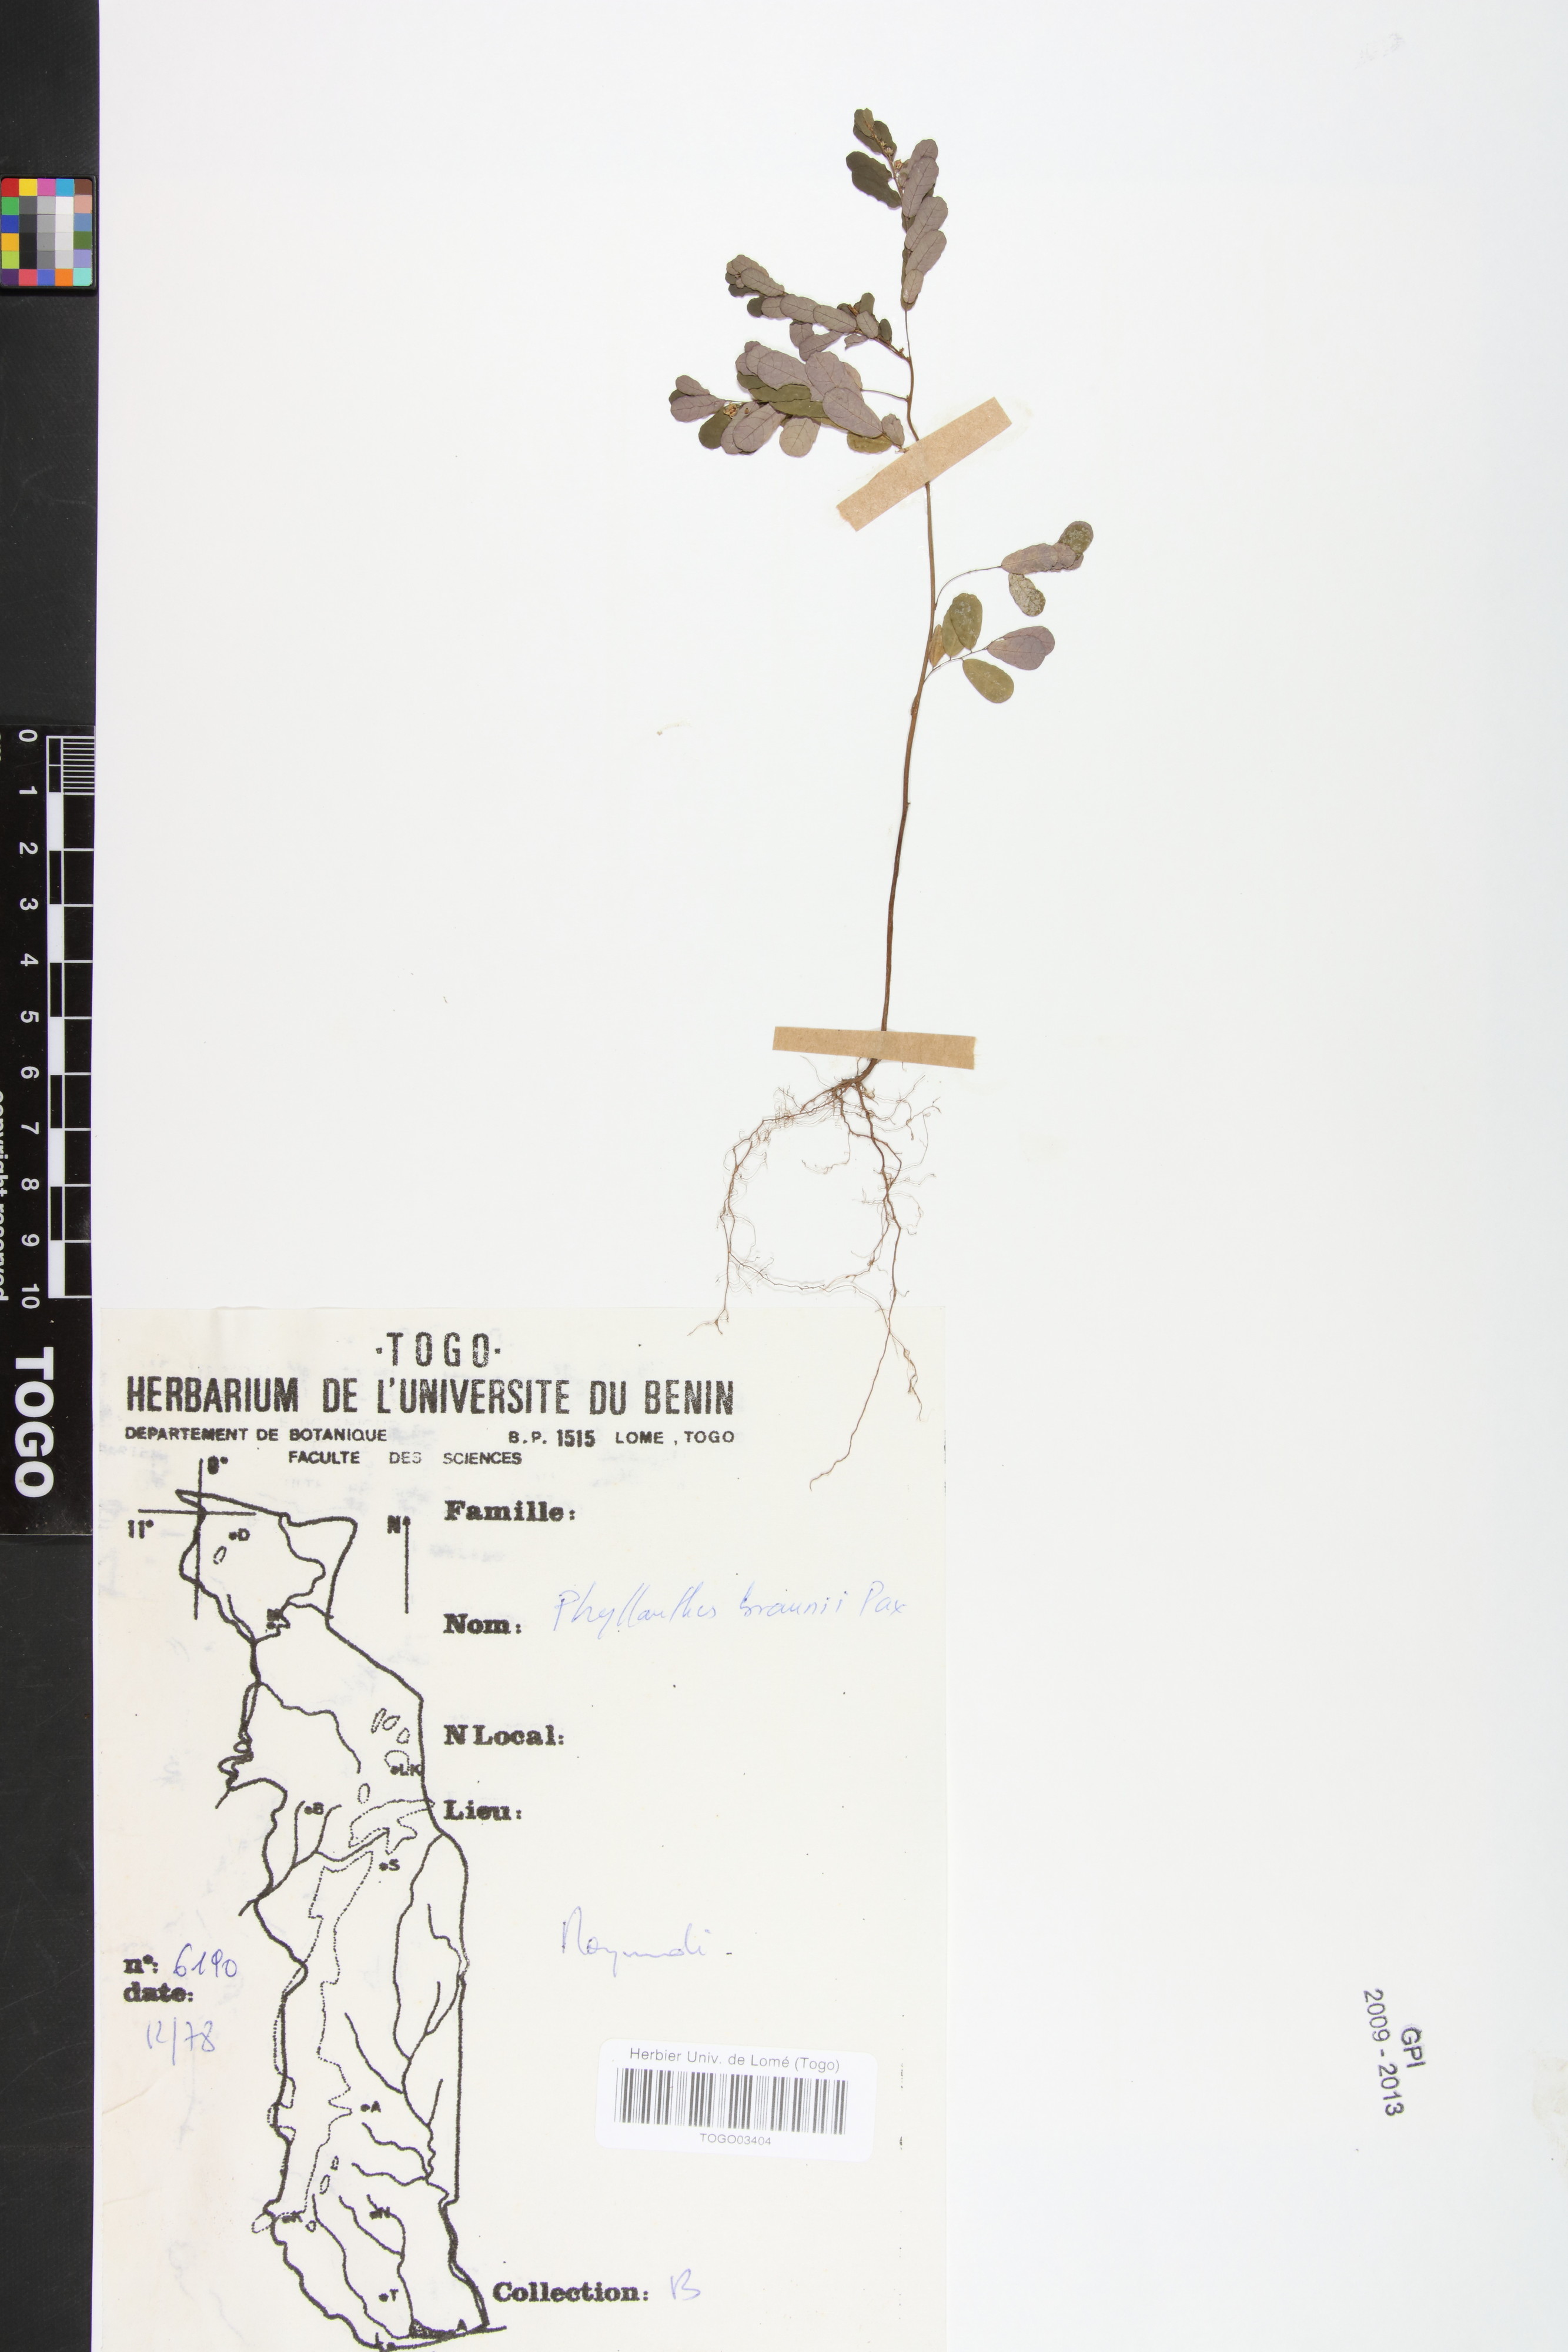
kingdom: Plantae
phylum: Tracheophyta
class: Magnoliopsida
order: Malpighiales
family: Phyllanthaceae
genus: Phyllanthus
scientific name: Phyllanthus odontadenius
